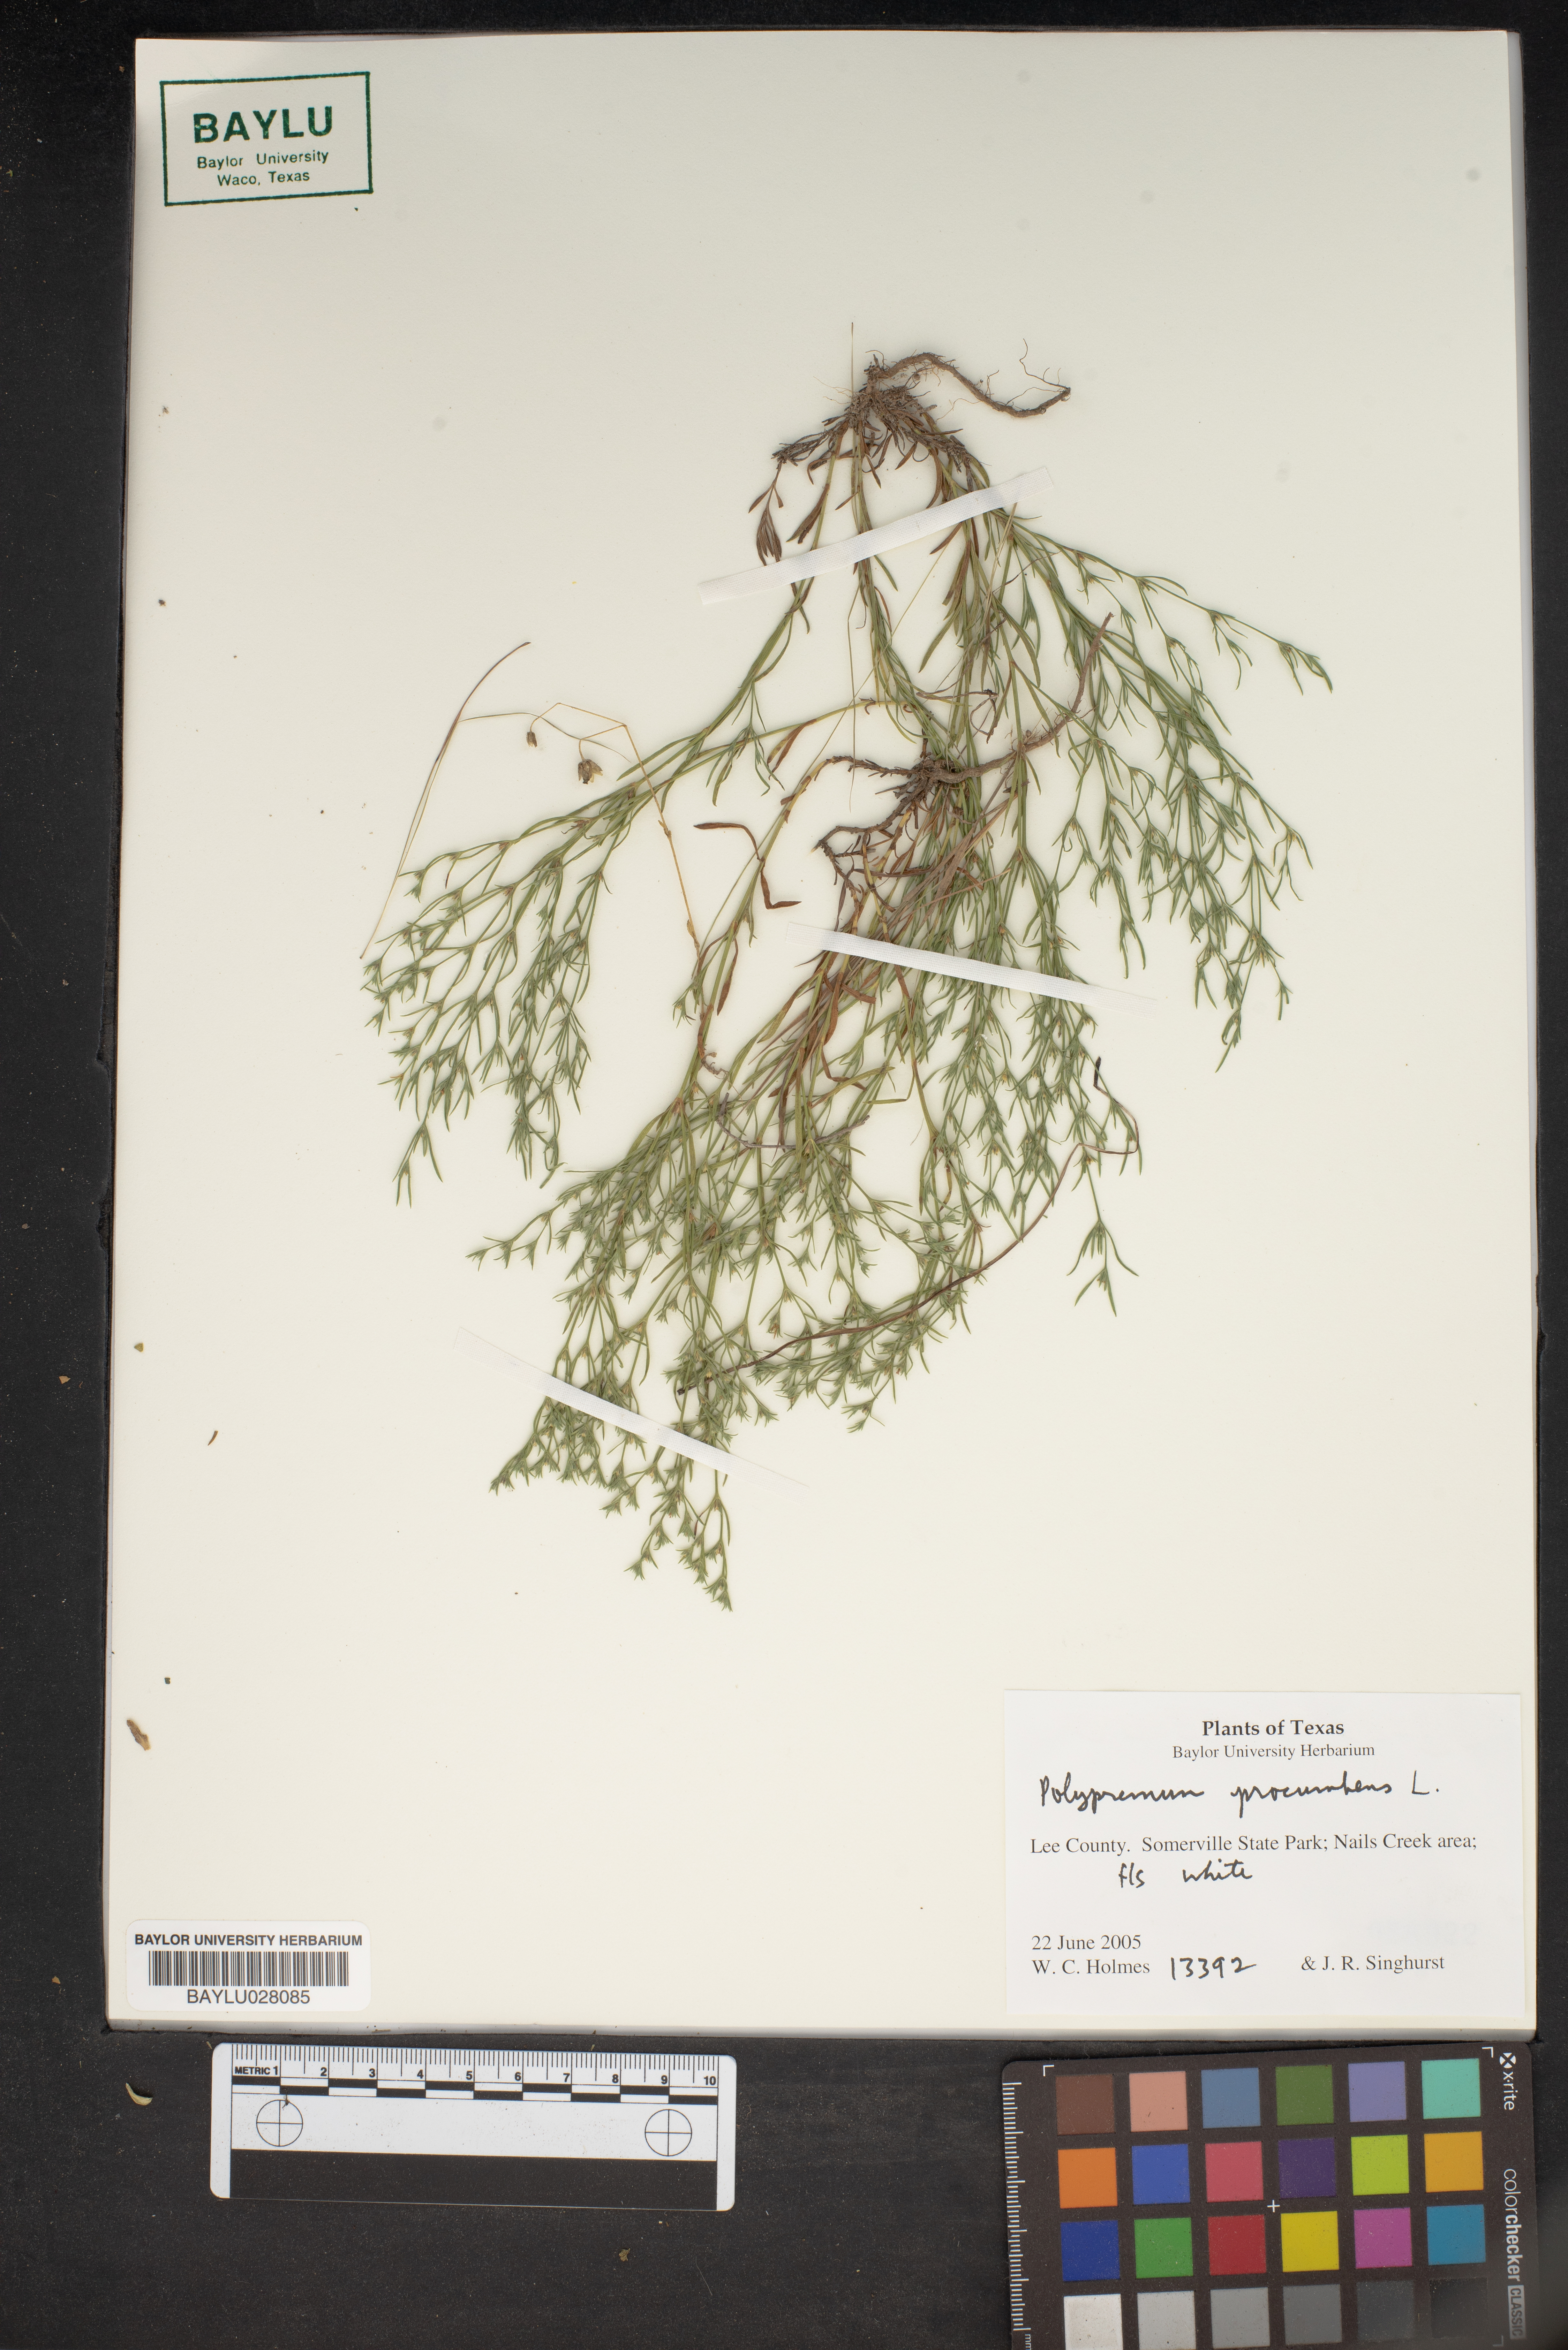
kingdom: Plantae
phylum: Tracheophyta
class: Magnoliopsida
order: Lamiales
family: Tetrachondraceae
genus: Polypremum
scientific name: Polypremum procumbens
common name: Juniper-leaf
